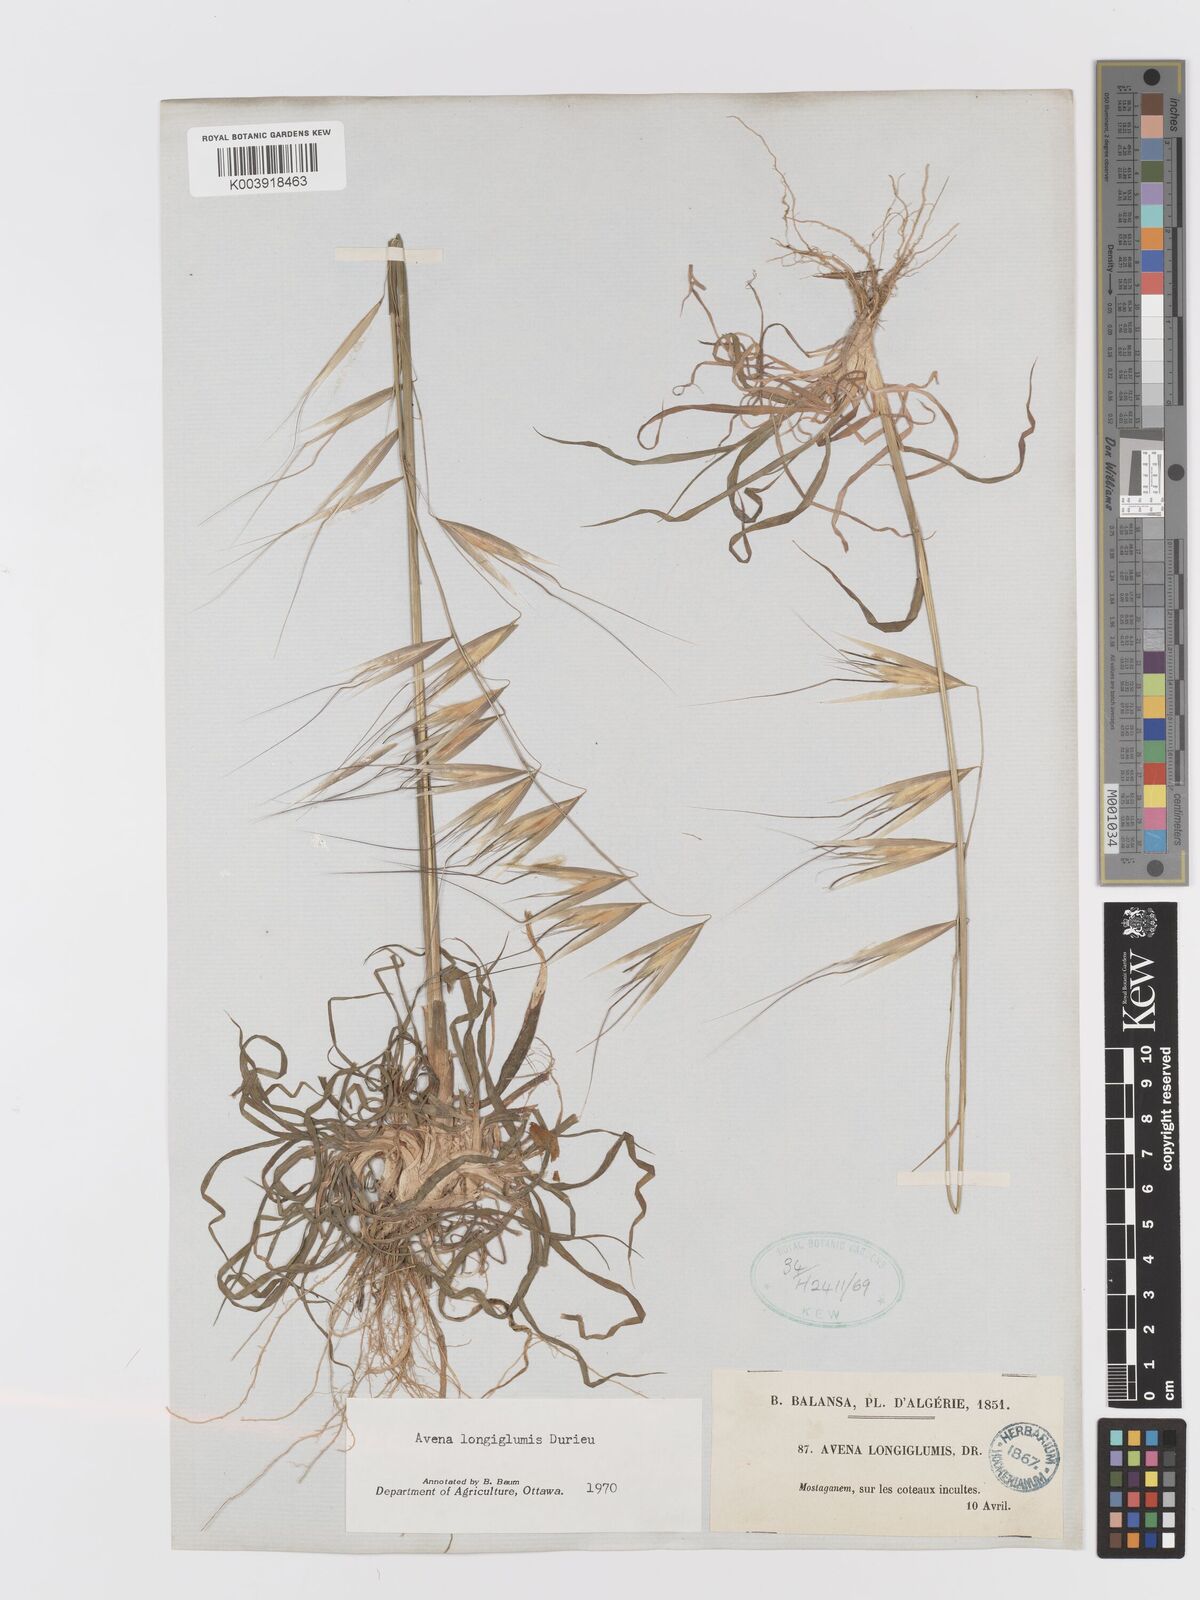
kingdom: Plantae
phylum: Tracheophyta
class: Liliopsida
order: Poales
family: Poaceae
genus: Avena
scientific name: Avena longiglumis
